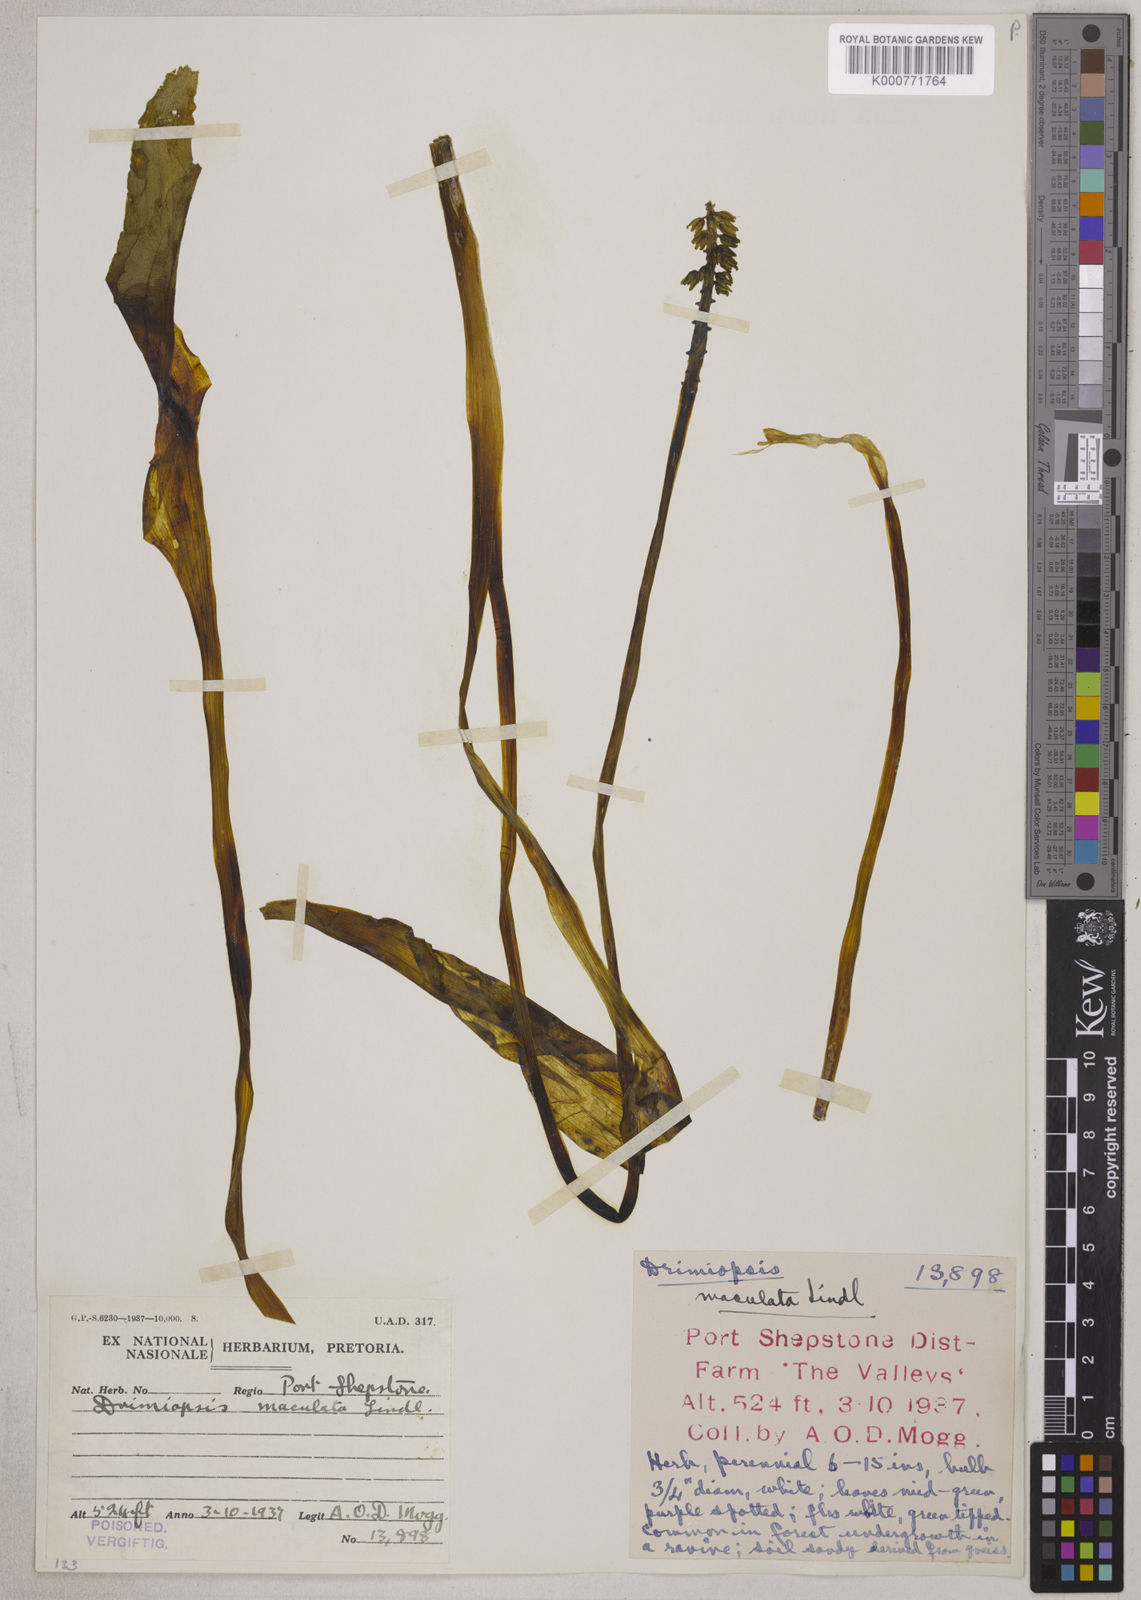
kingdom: Plantae
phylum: Tracheophyta
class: Liliopsida
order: Asparagales
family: Asparagaceae
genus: Drimiopsis
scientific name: Drimiopsis maculata
